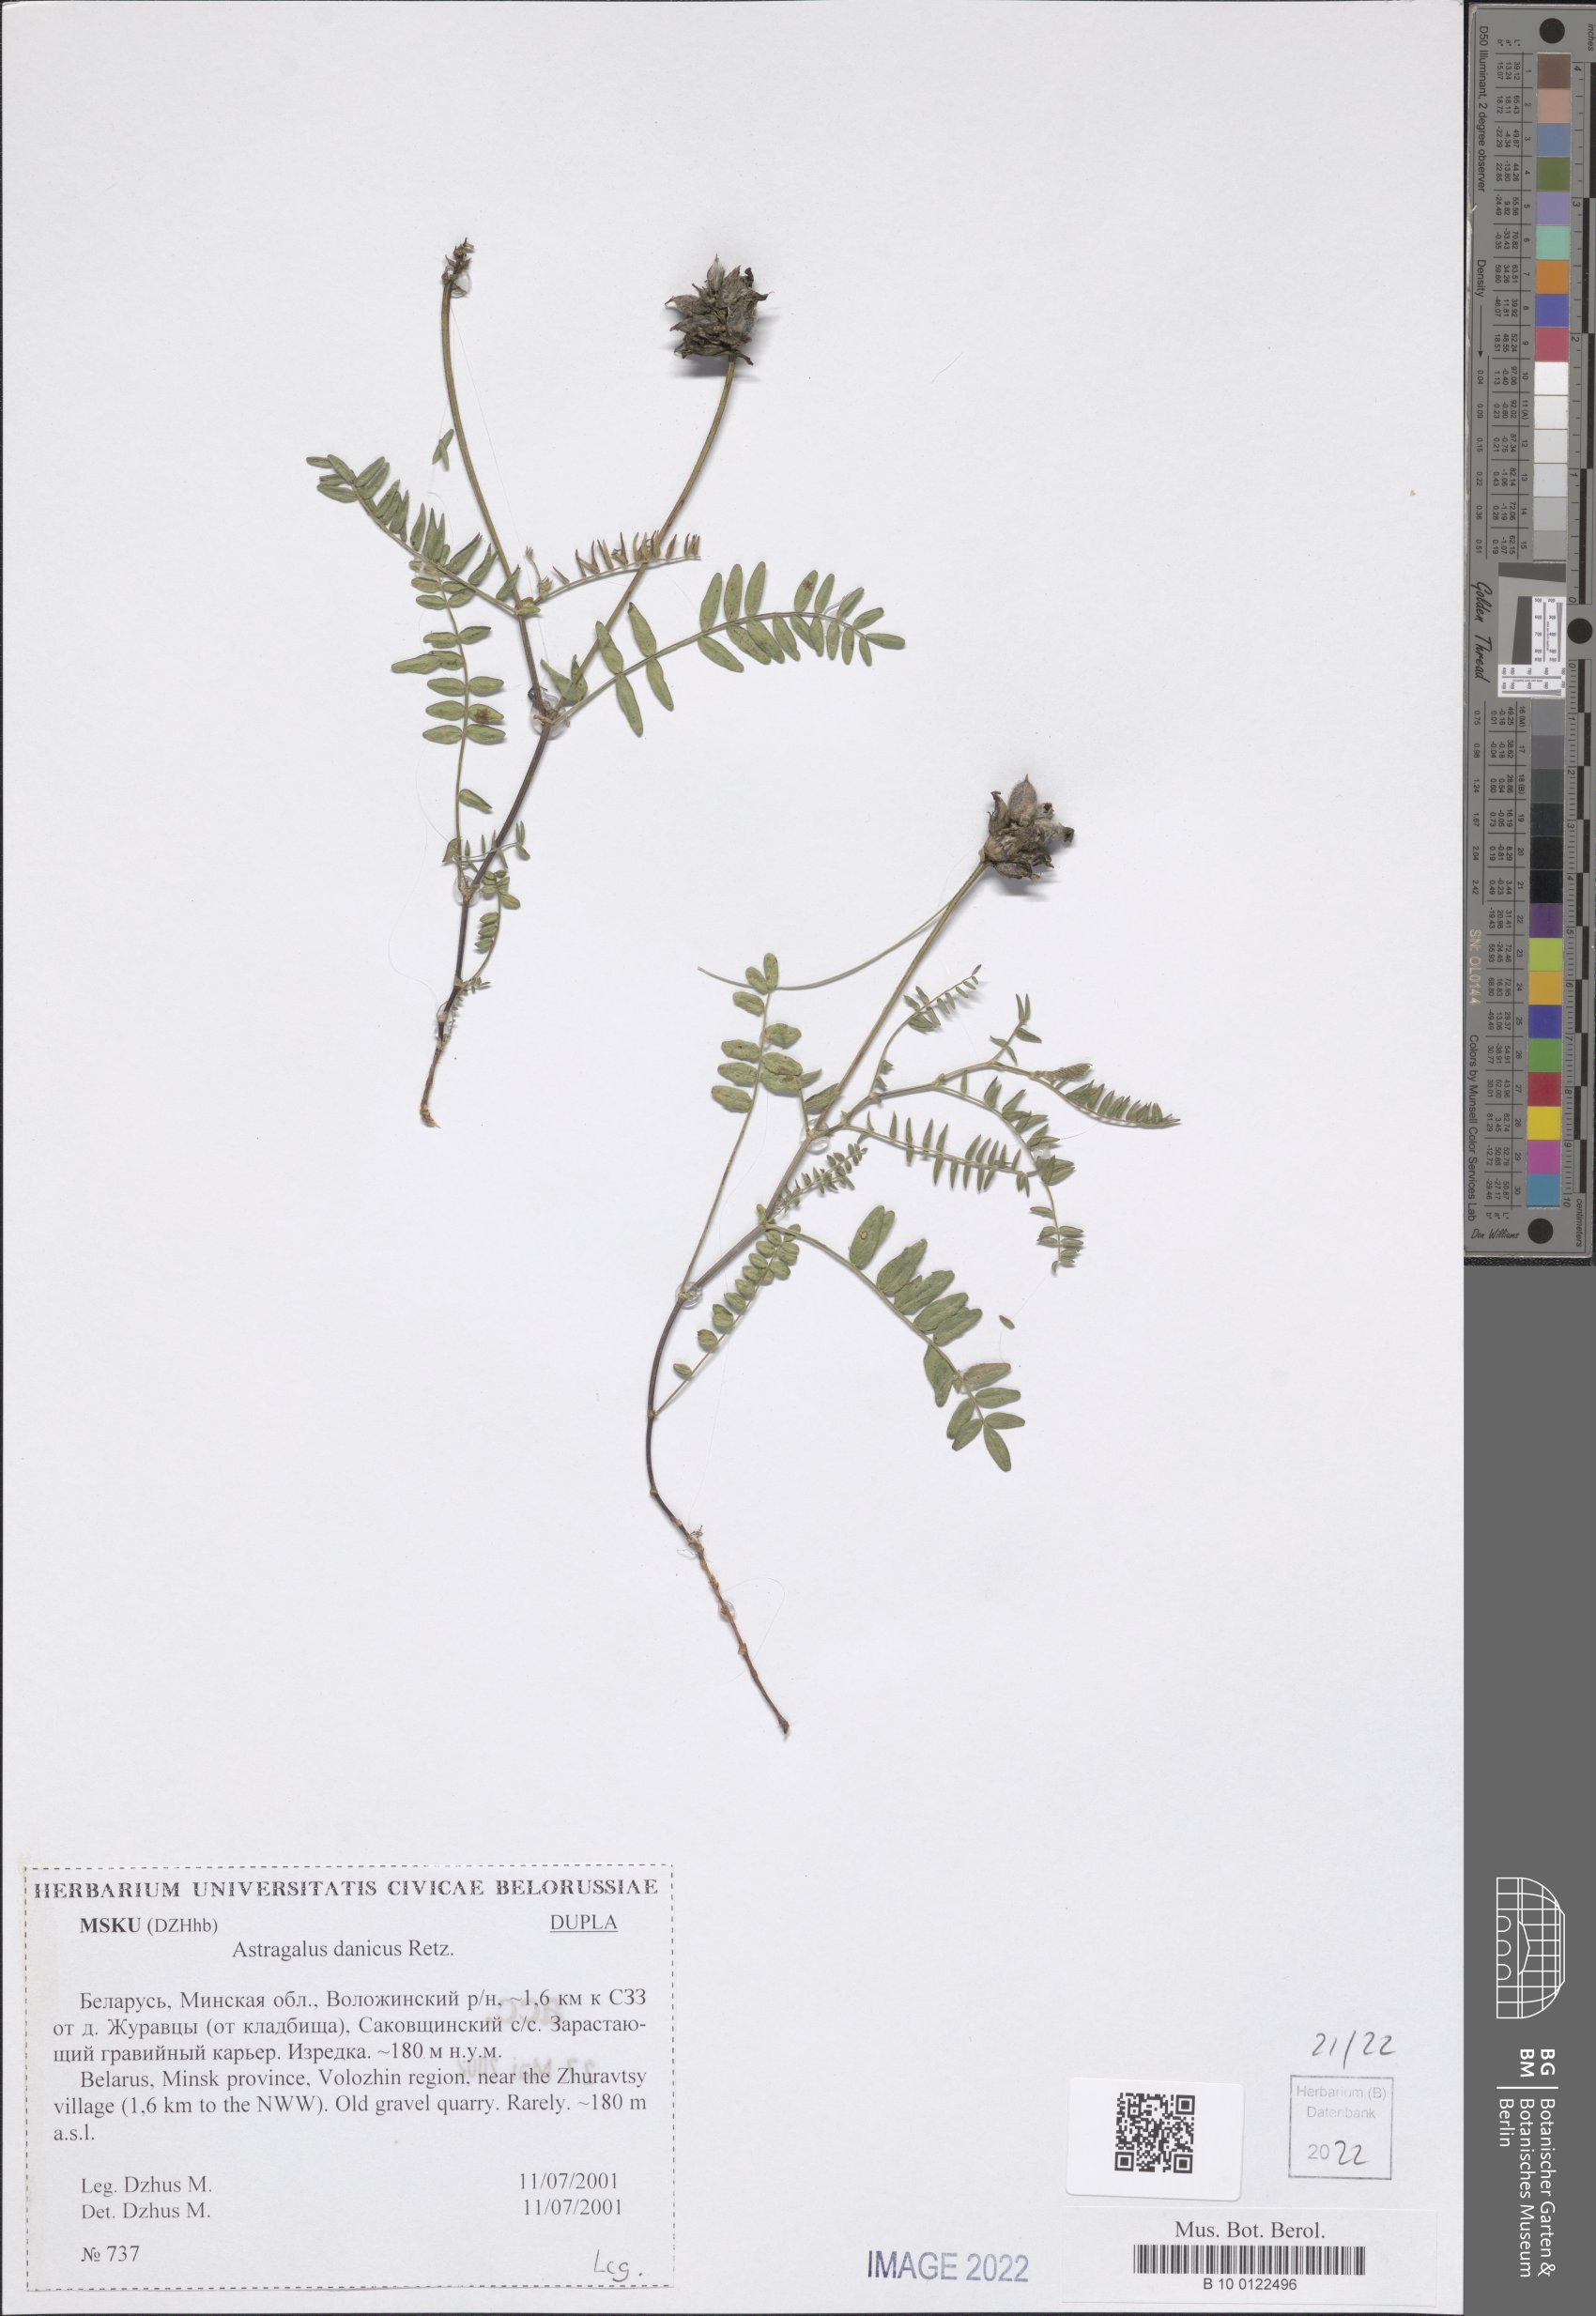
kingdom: Plantae
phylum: Tracheophyta
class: Magnoliopsida
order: Fabales
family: Fabaceae
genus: Astragalus
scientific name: Astragalus danicus
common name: Purple milk-vetch
